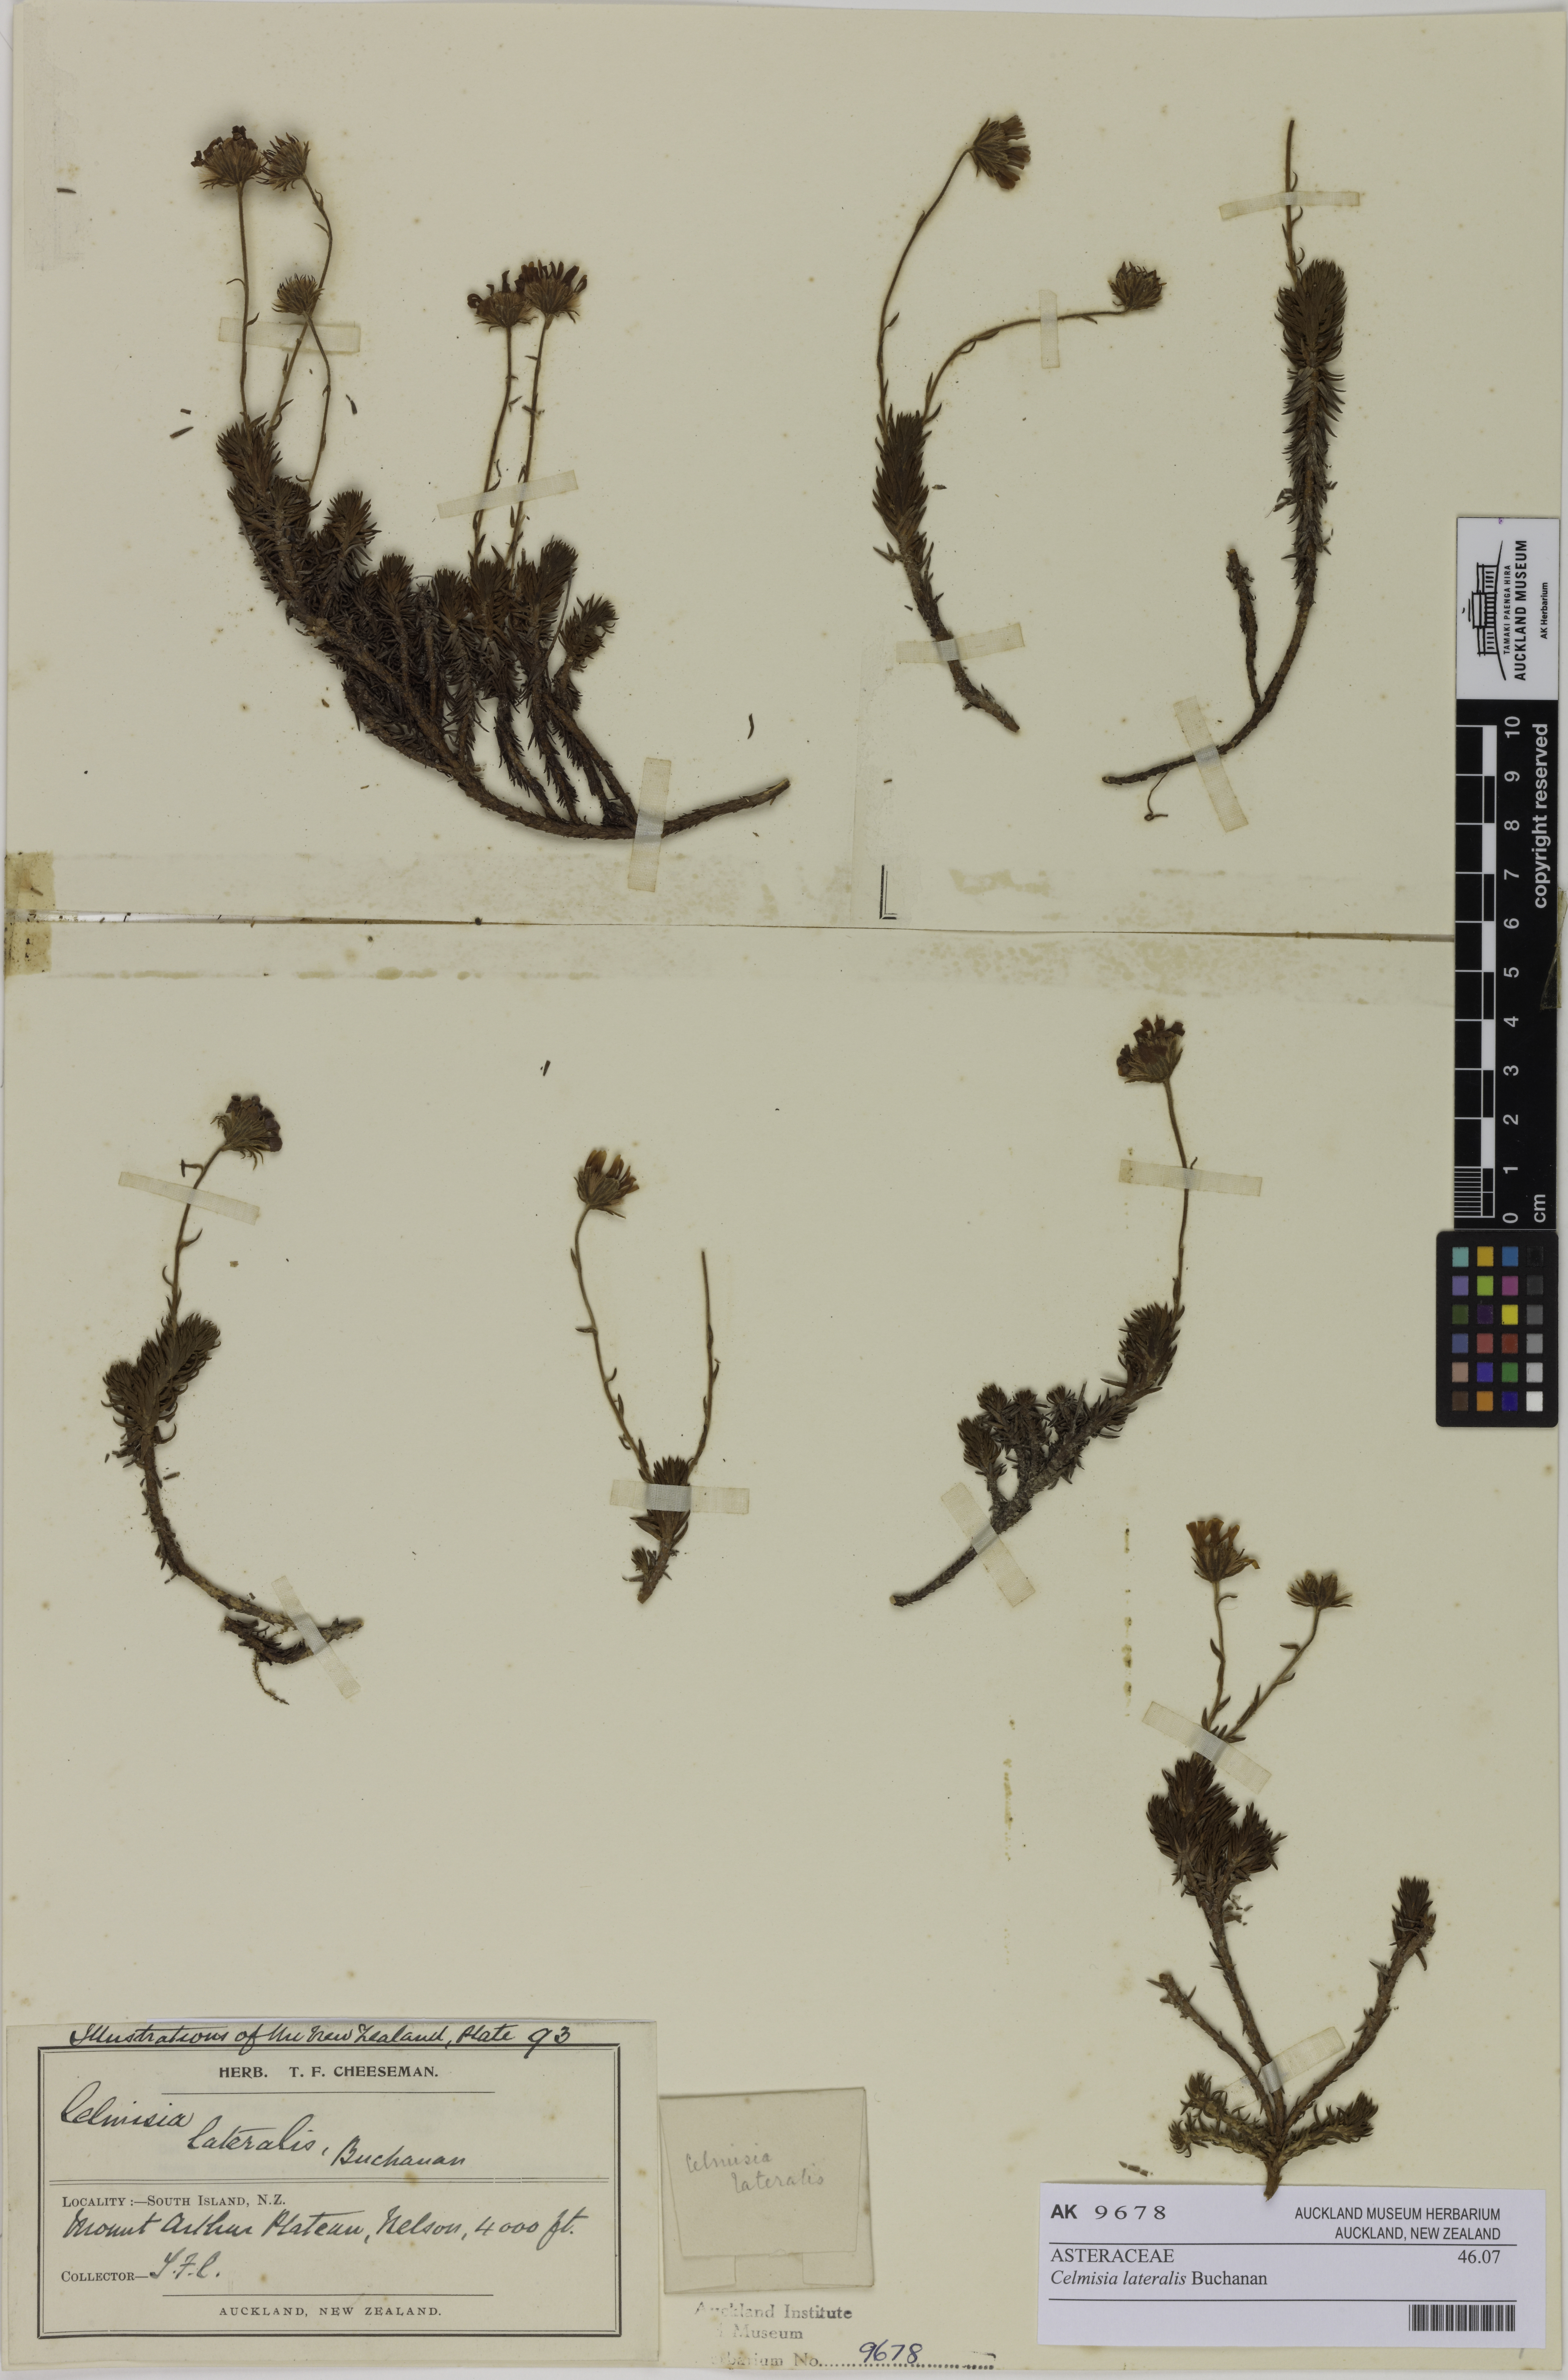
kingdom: Plantae
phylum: Tracheophyta
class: Magnoliopsida
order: Asterales
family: Asteraceae
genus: Celmisia
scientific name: Celmisia lateralis
